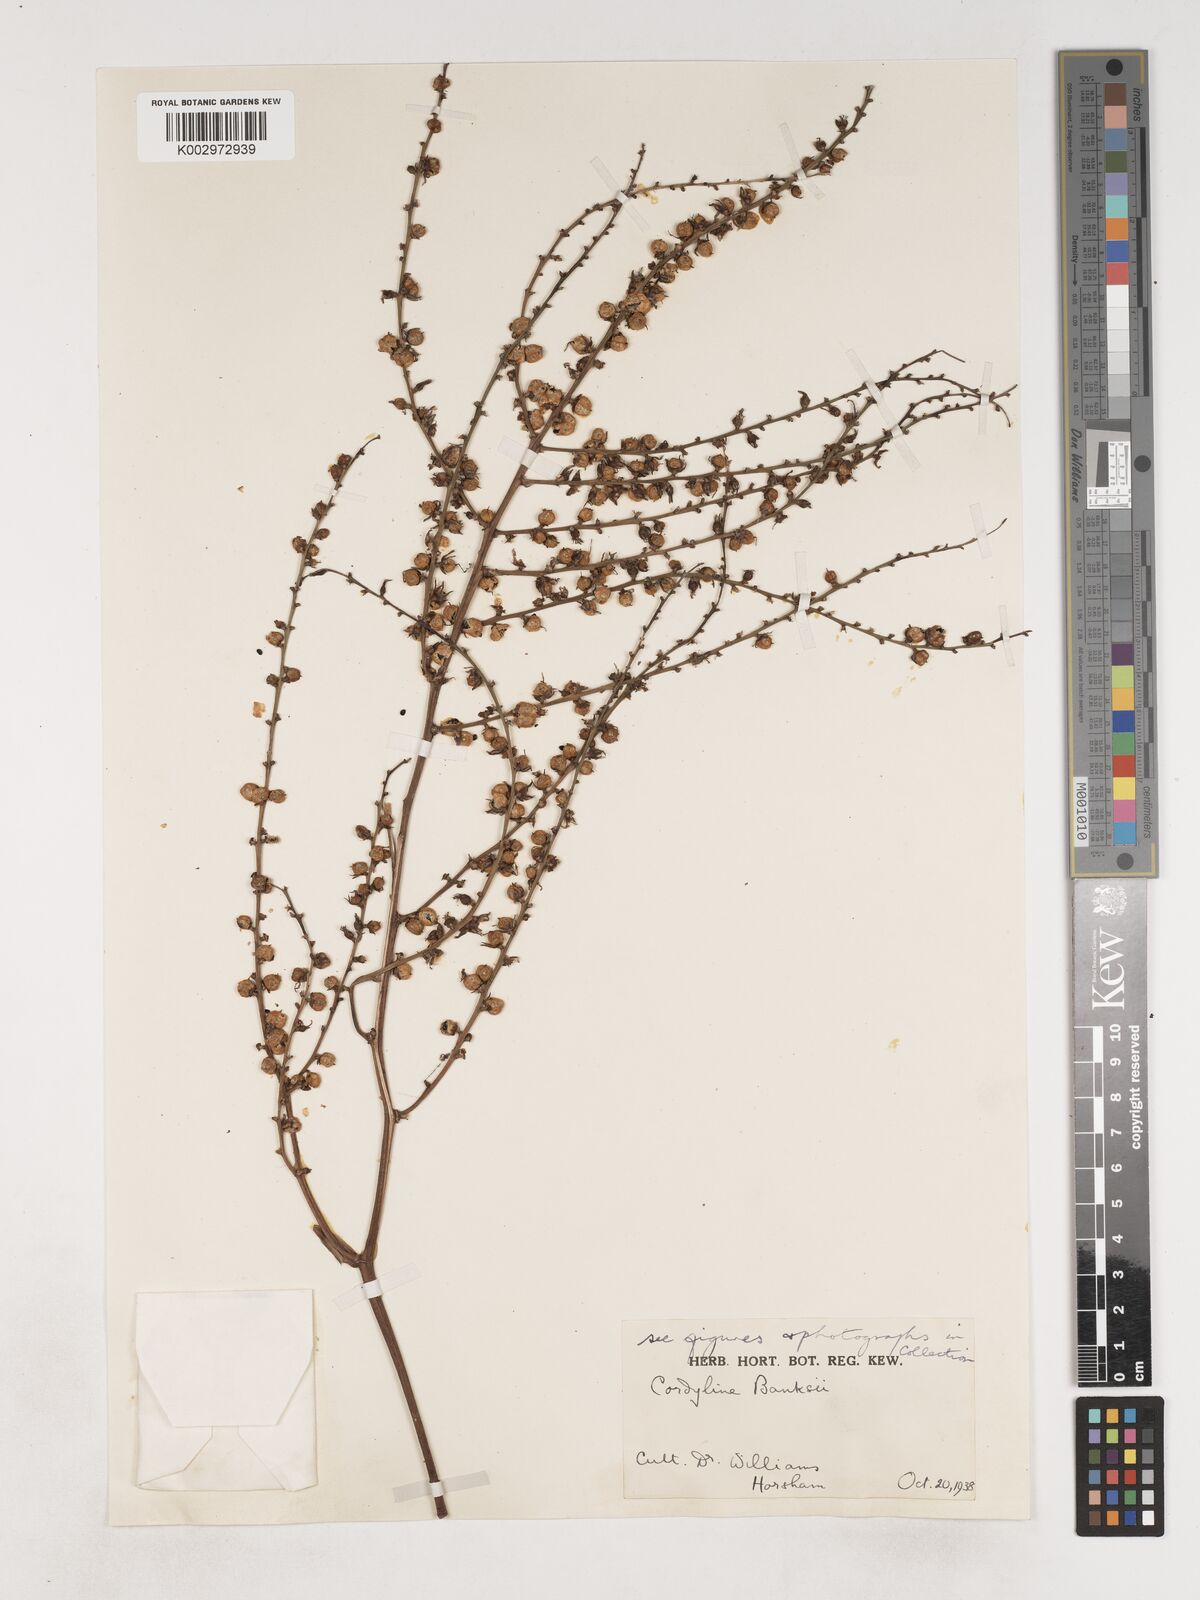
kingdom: Plantae
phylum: Tracheophyta
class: Liliopsida
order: Asparagales
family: Asparagaceae
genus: Cordyline
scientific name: Cordyline banksii
